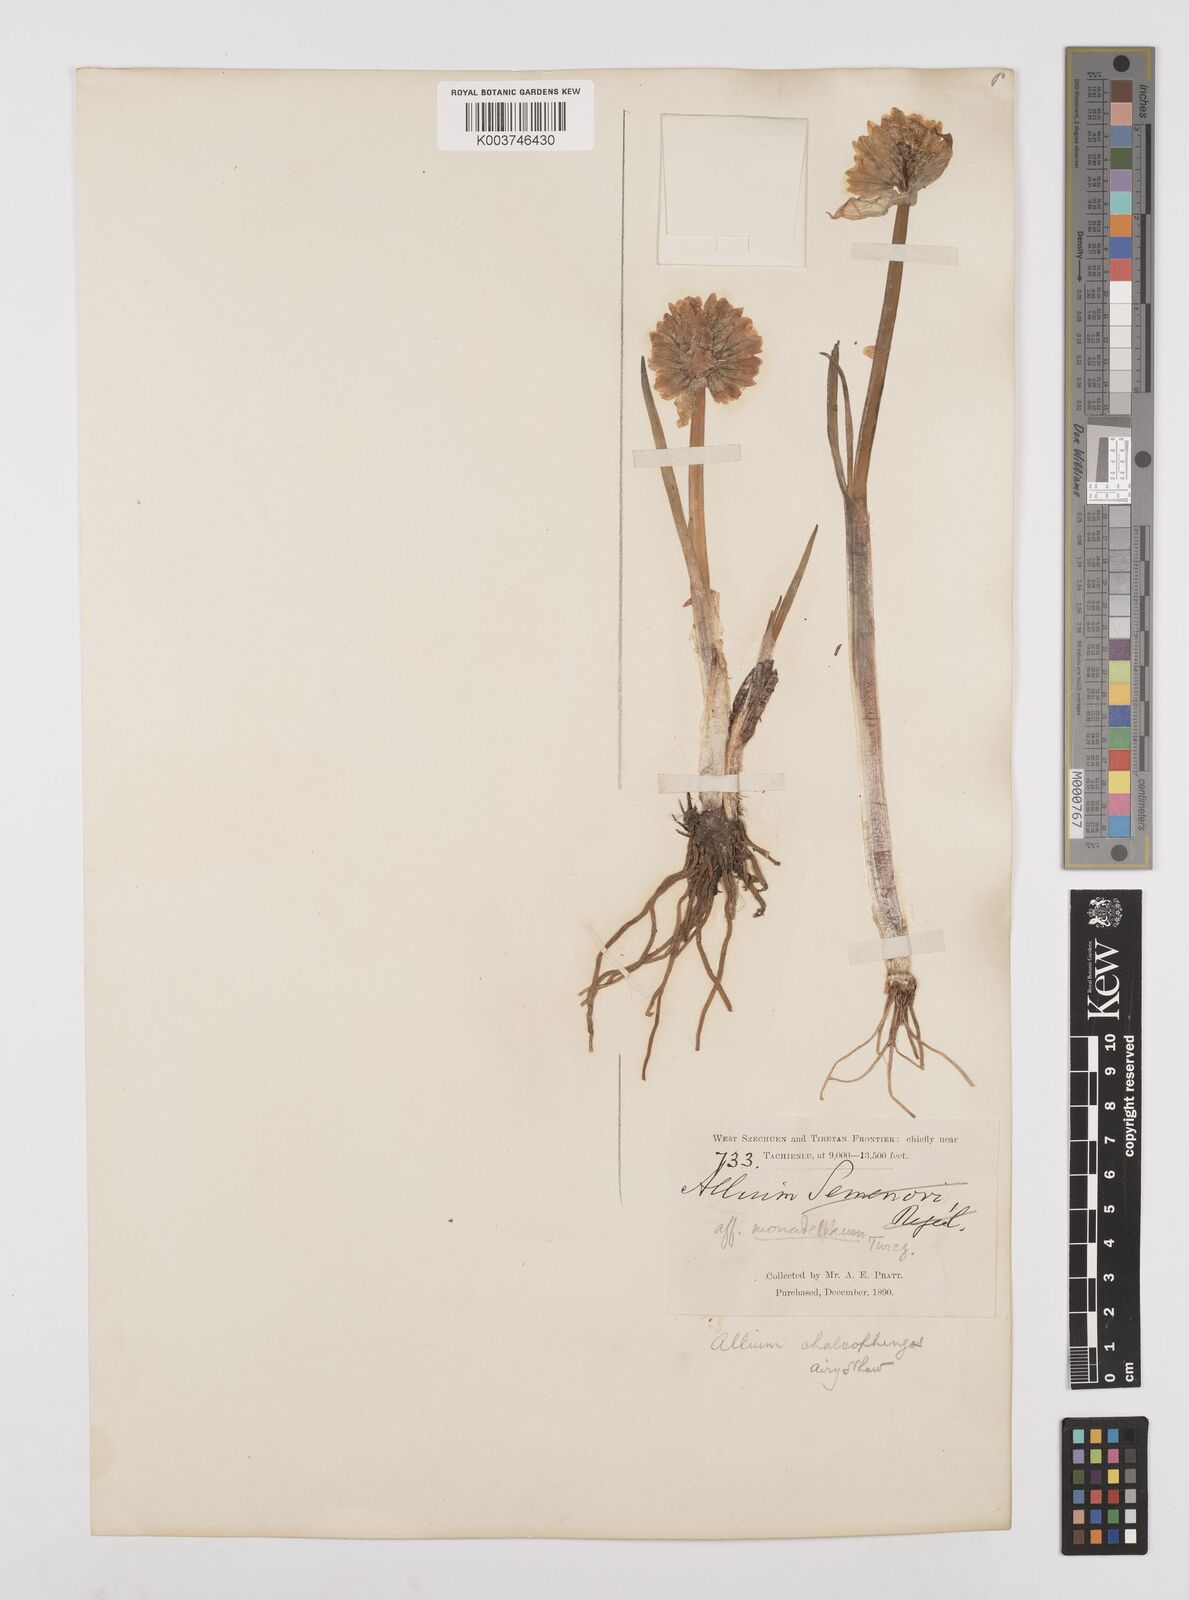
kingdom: Plantae
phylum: Tracheophyta
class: Liliopsida
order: Asparagales
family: Amaryllidaceae
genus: Allium
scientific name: Allium atrosanguineum
